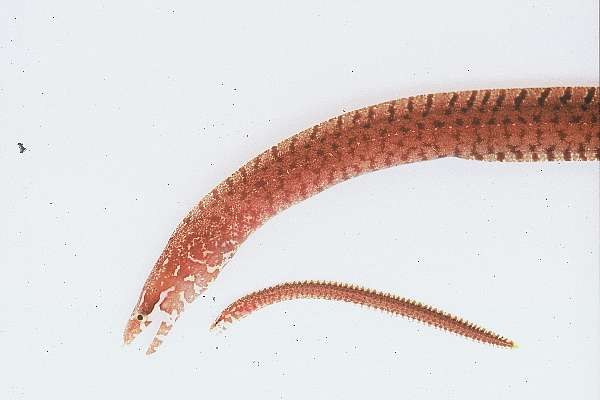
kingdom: Animalia
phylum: Chordata
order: Anguilliformes
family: Muraenidae
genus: Gymnothorax
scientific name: Gymnothorax zonipectis
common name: Bar-tail moray
